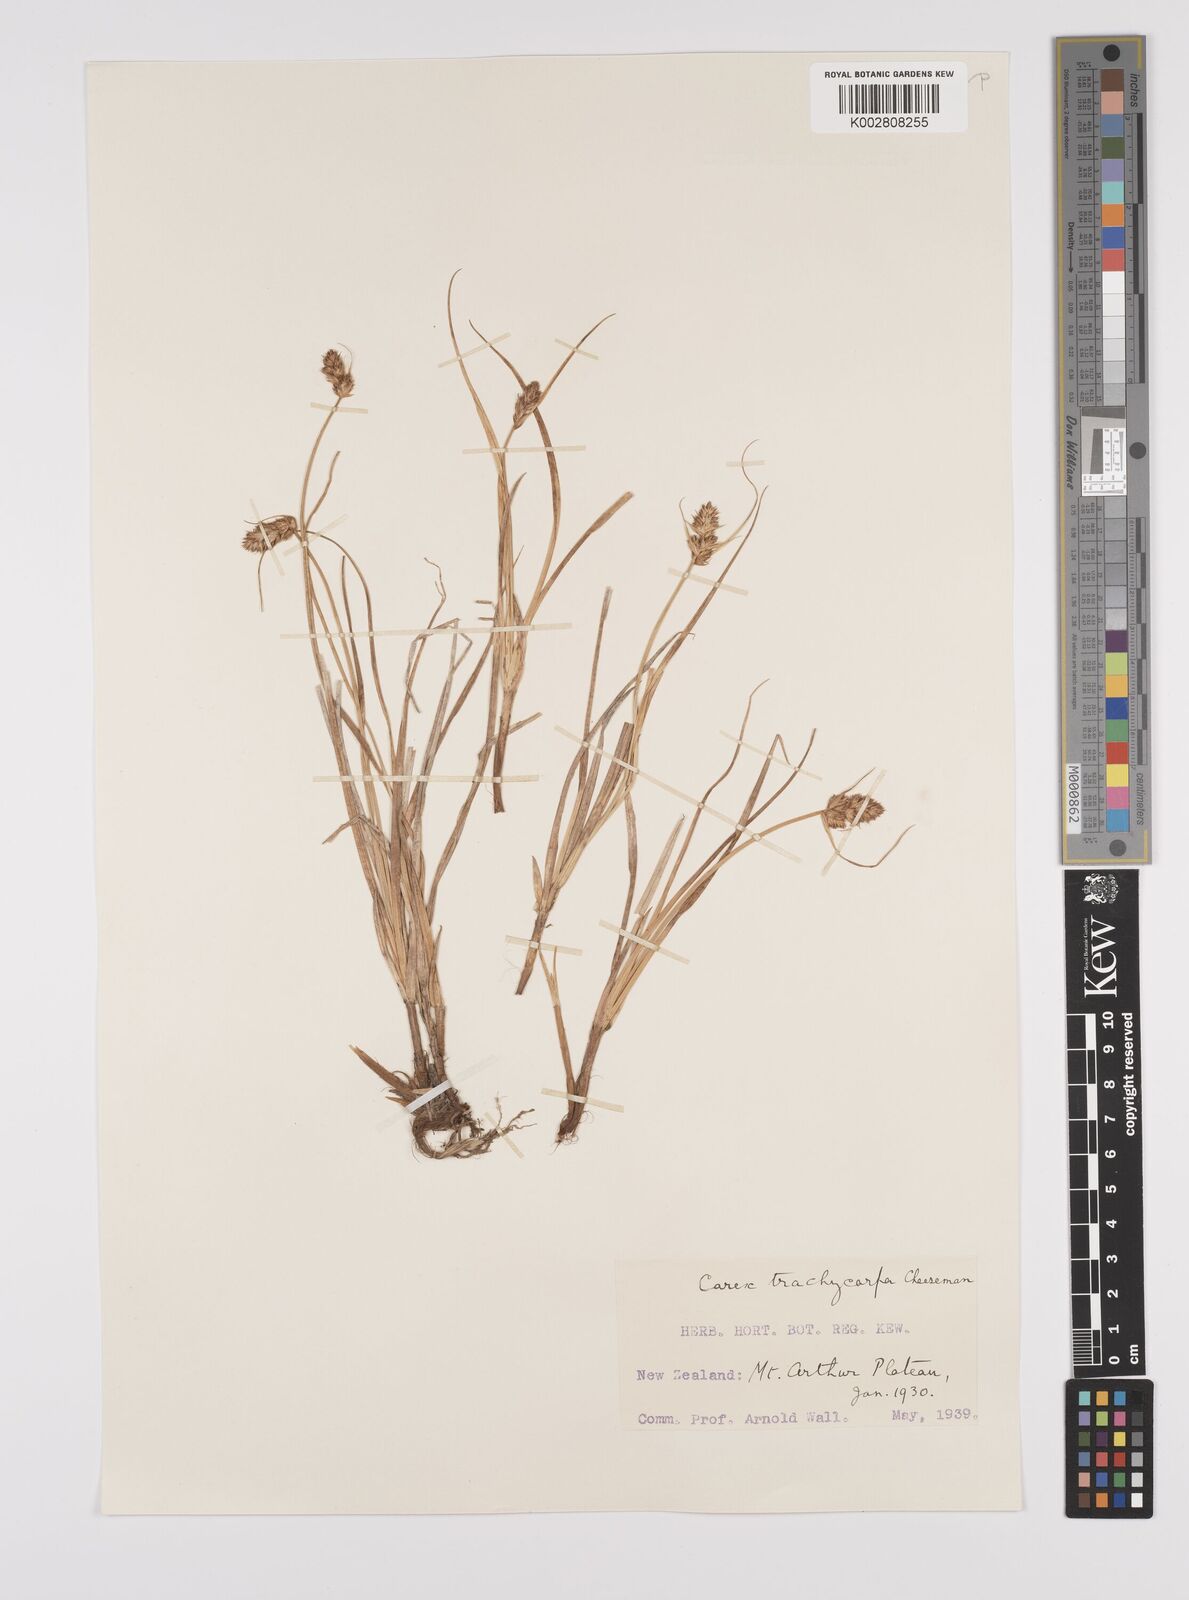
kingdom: Plantae
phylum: Tracheophyta
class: Liliopsida
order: Poales
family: Cyperaceae
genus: Carex
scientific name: Carex trachycarpa
